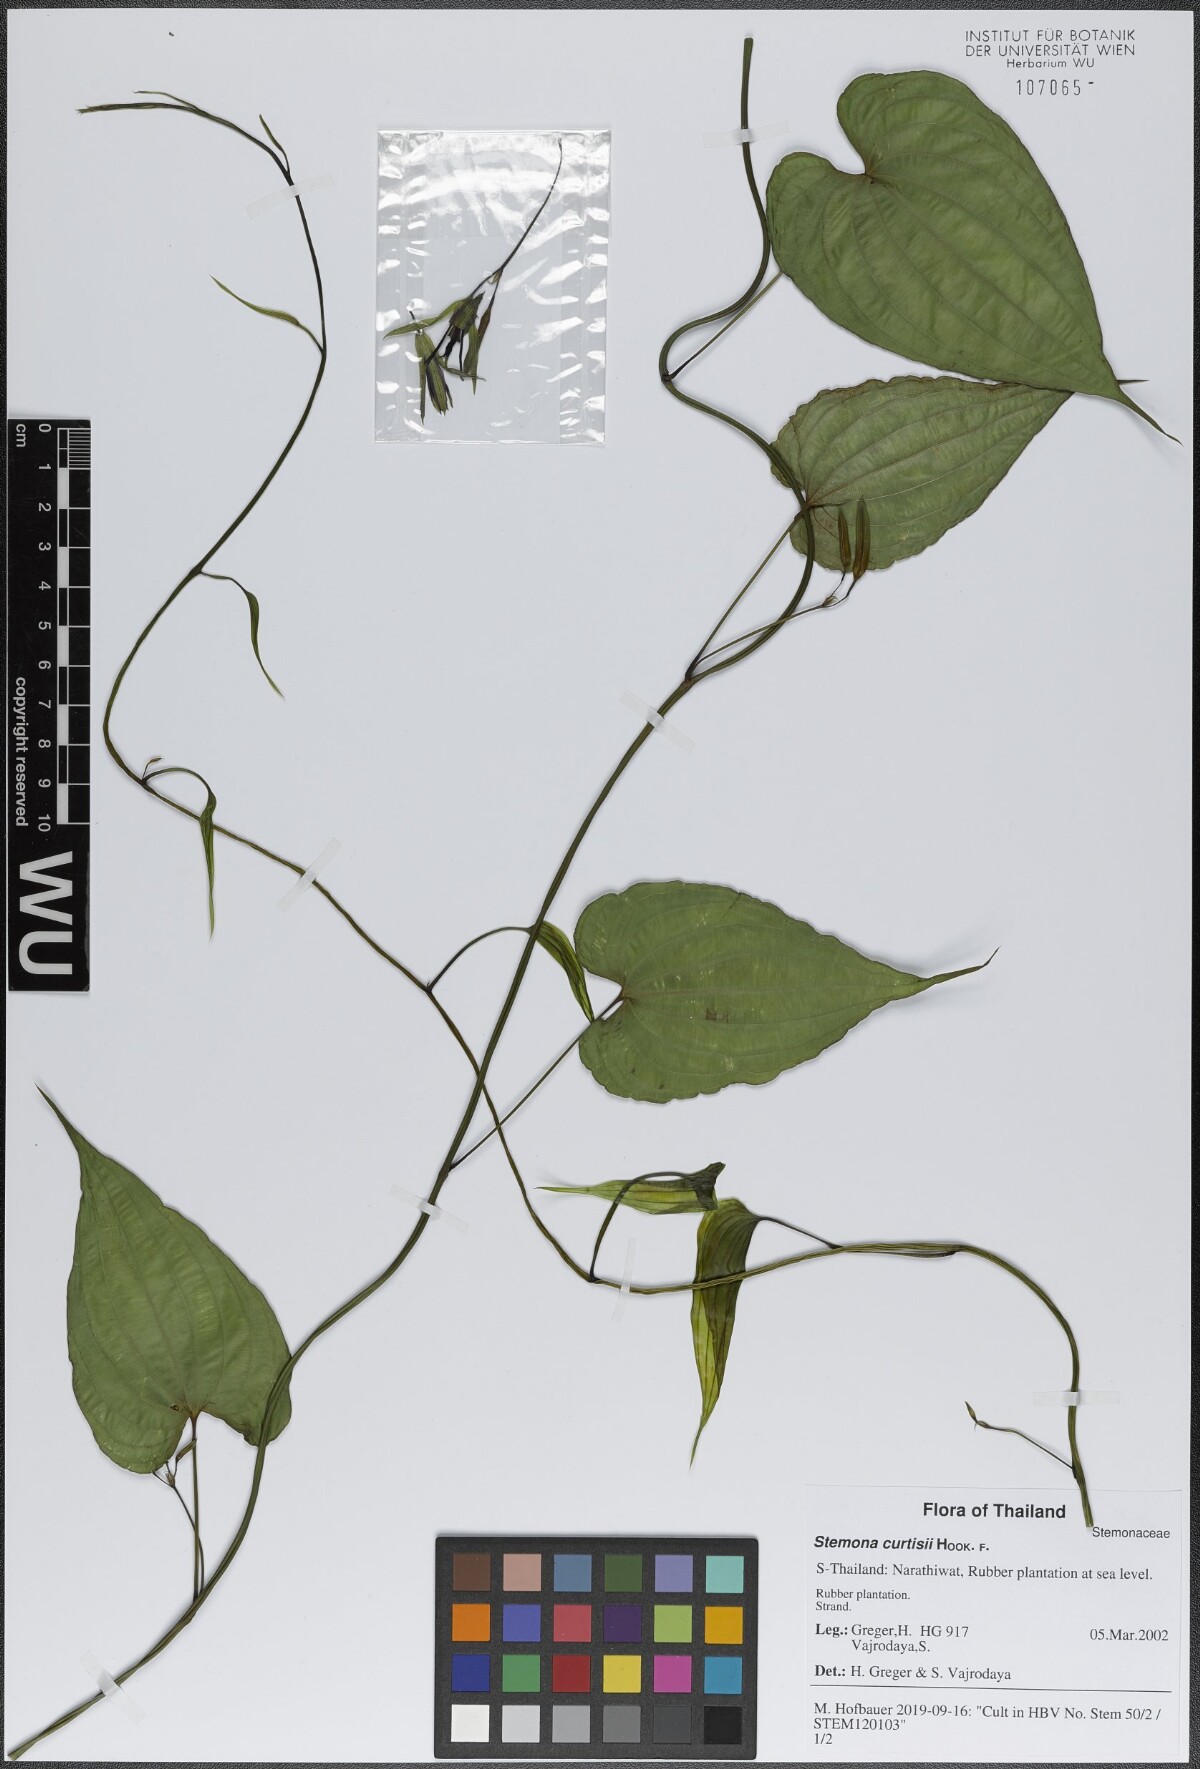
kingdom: Plantae
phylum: Tracheophyta
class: Liliopsida
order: Pandanales
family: Stemonaceae
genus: Stemona
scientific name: Stemona curtisii
